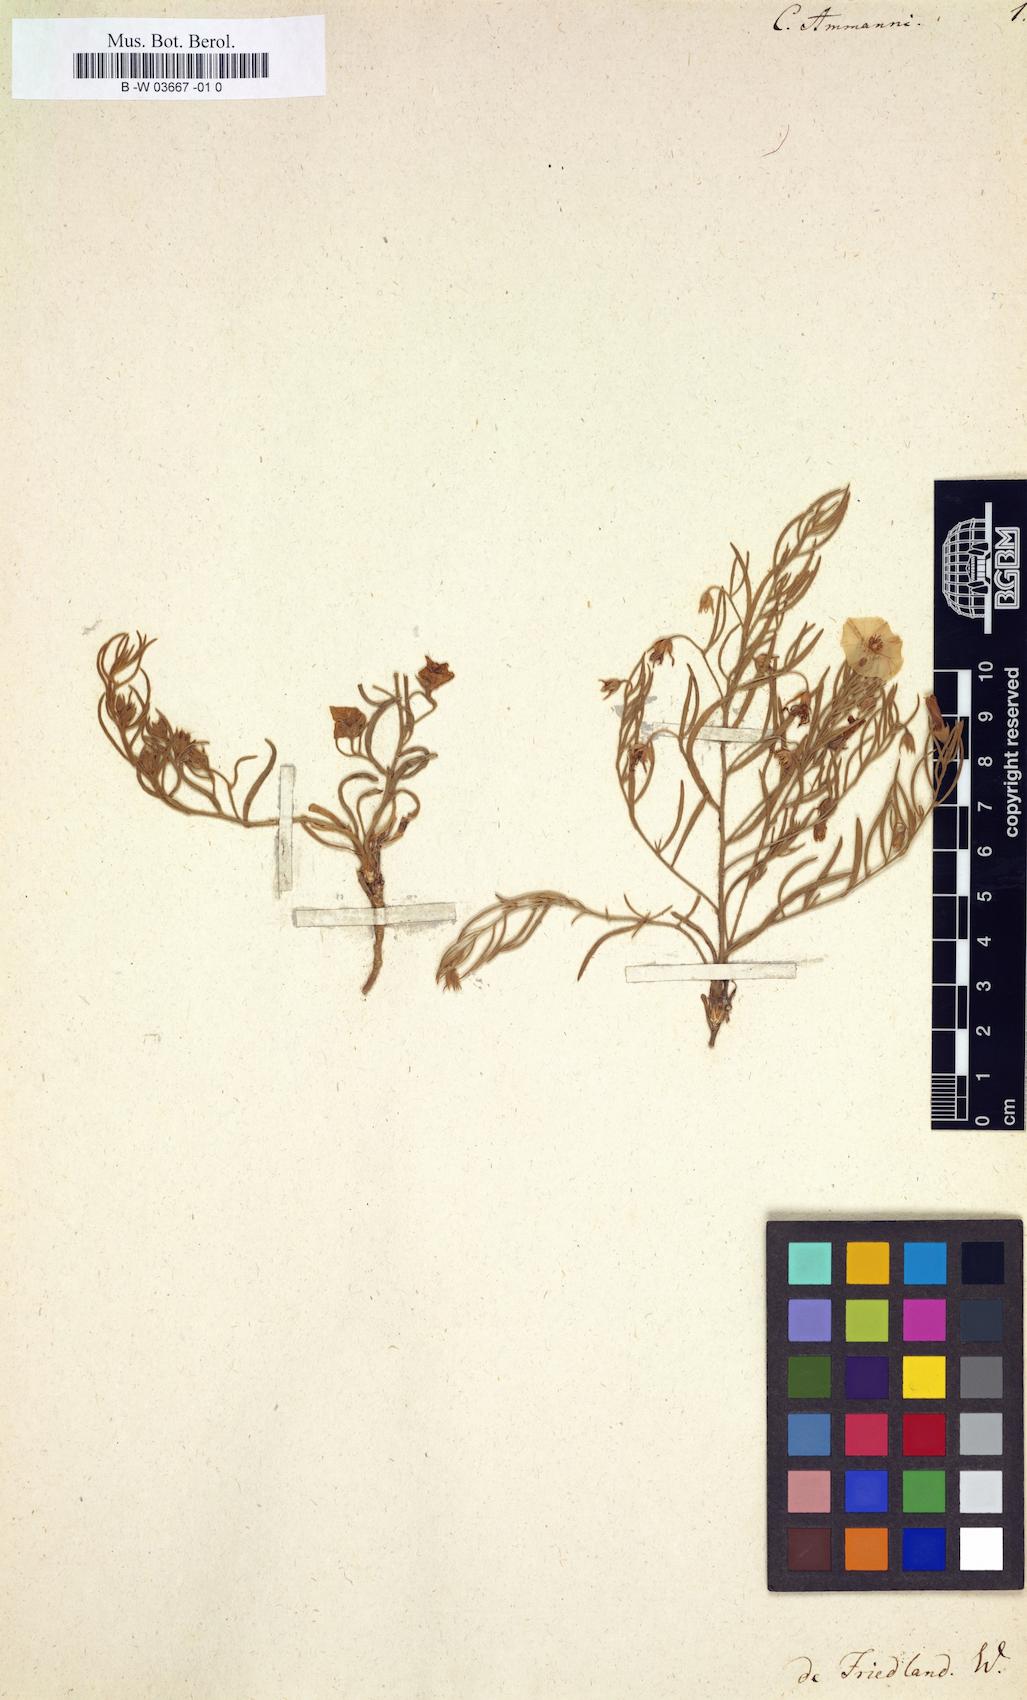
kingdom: Plantae
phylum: Tracheophyta
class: Magnoliopsida
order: Solanales
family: Convolvulaceae
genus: Convolvulus
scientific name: Convolvulus ammannii
